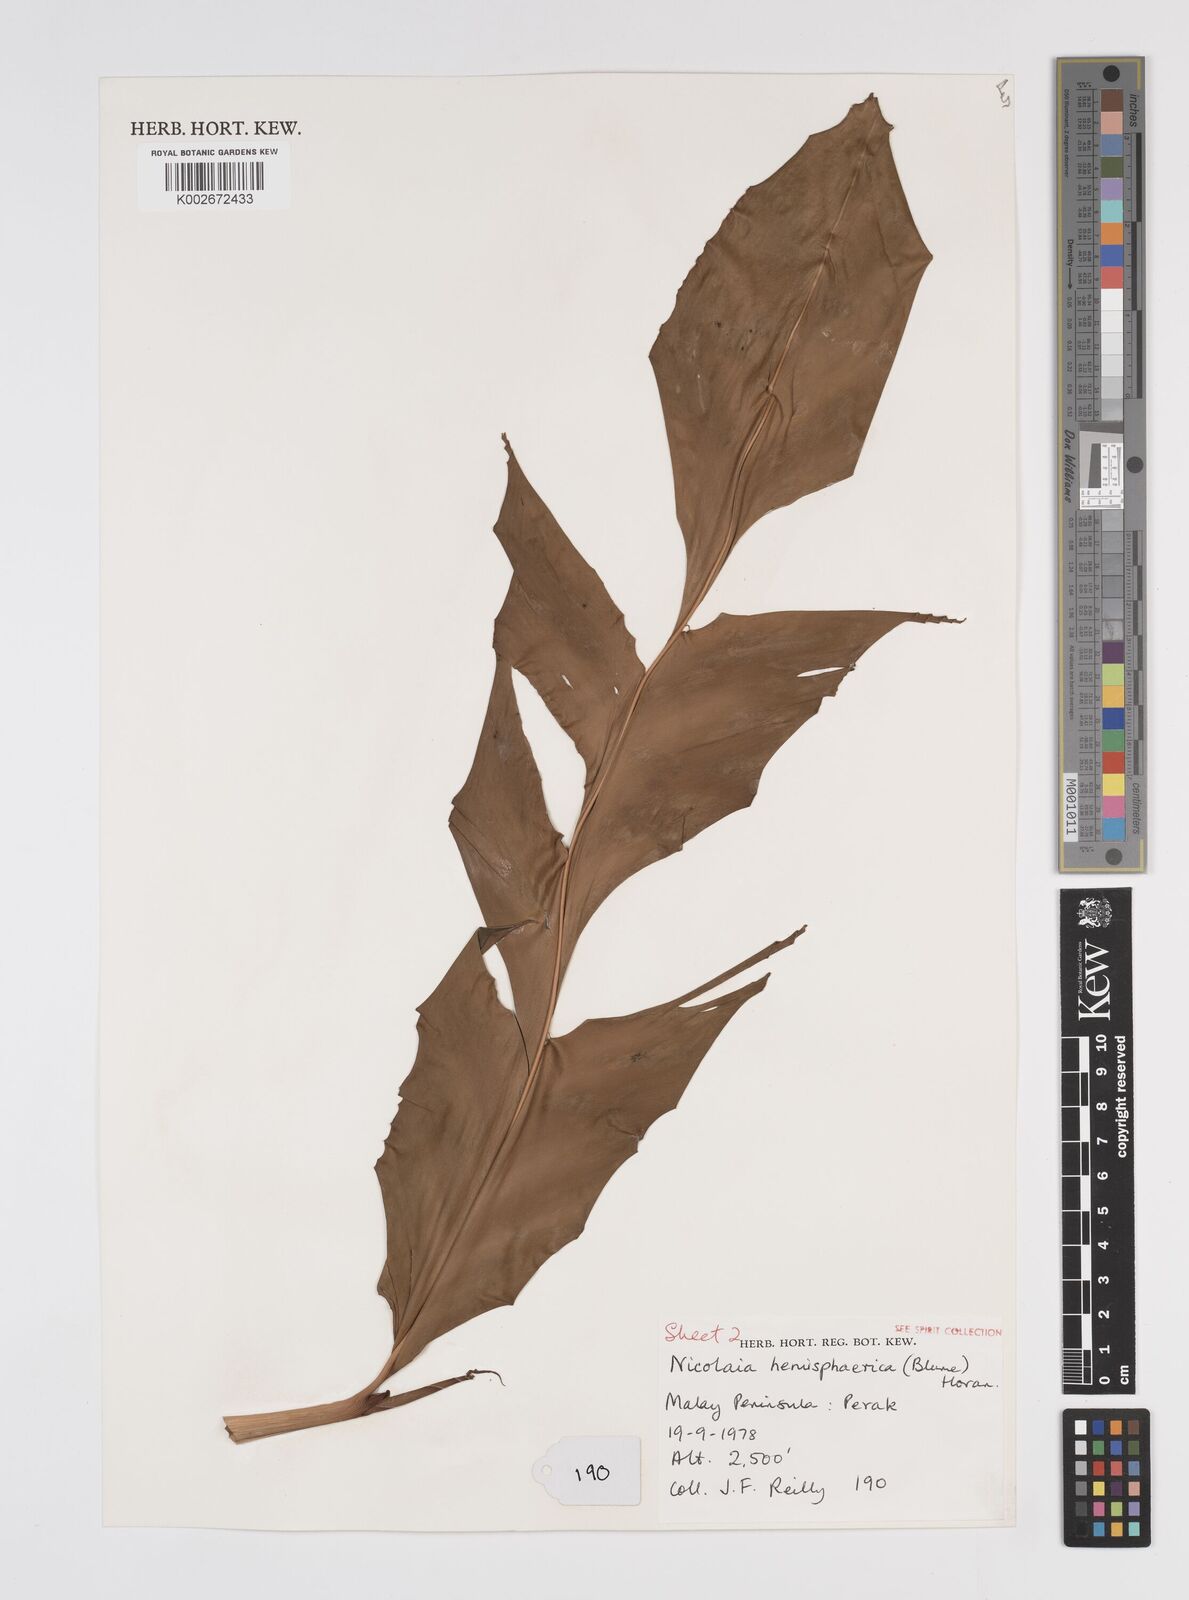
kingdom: Plantae
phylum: Tracheophyta
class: Liliopsida
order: Zingiberales
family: Zingiberaceae
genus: Etlingera
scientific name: Etlingera fulgens
